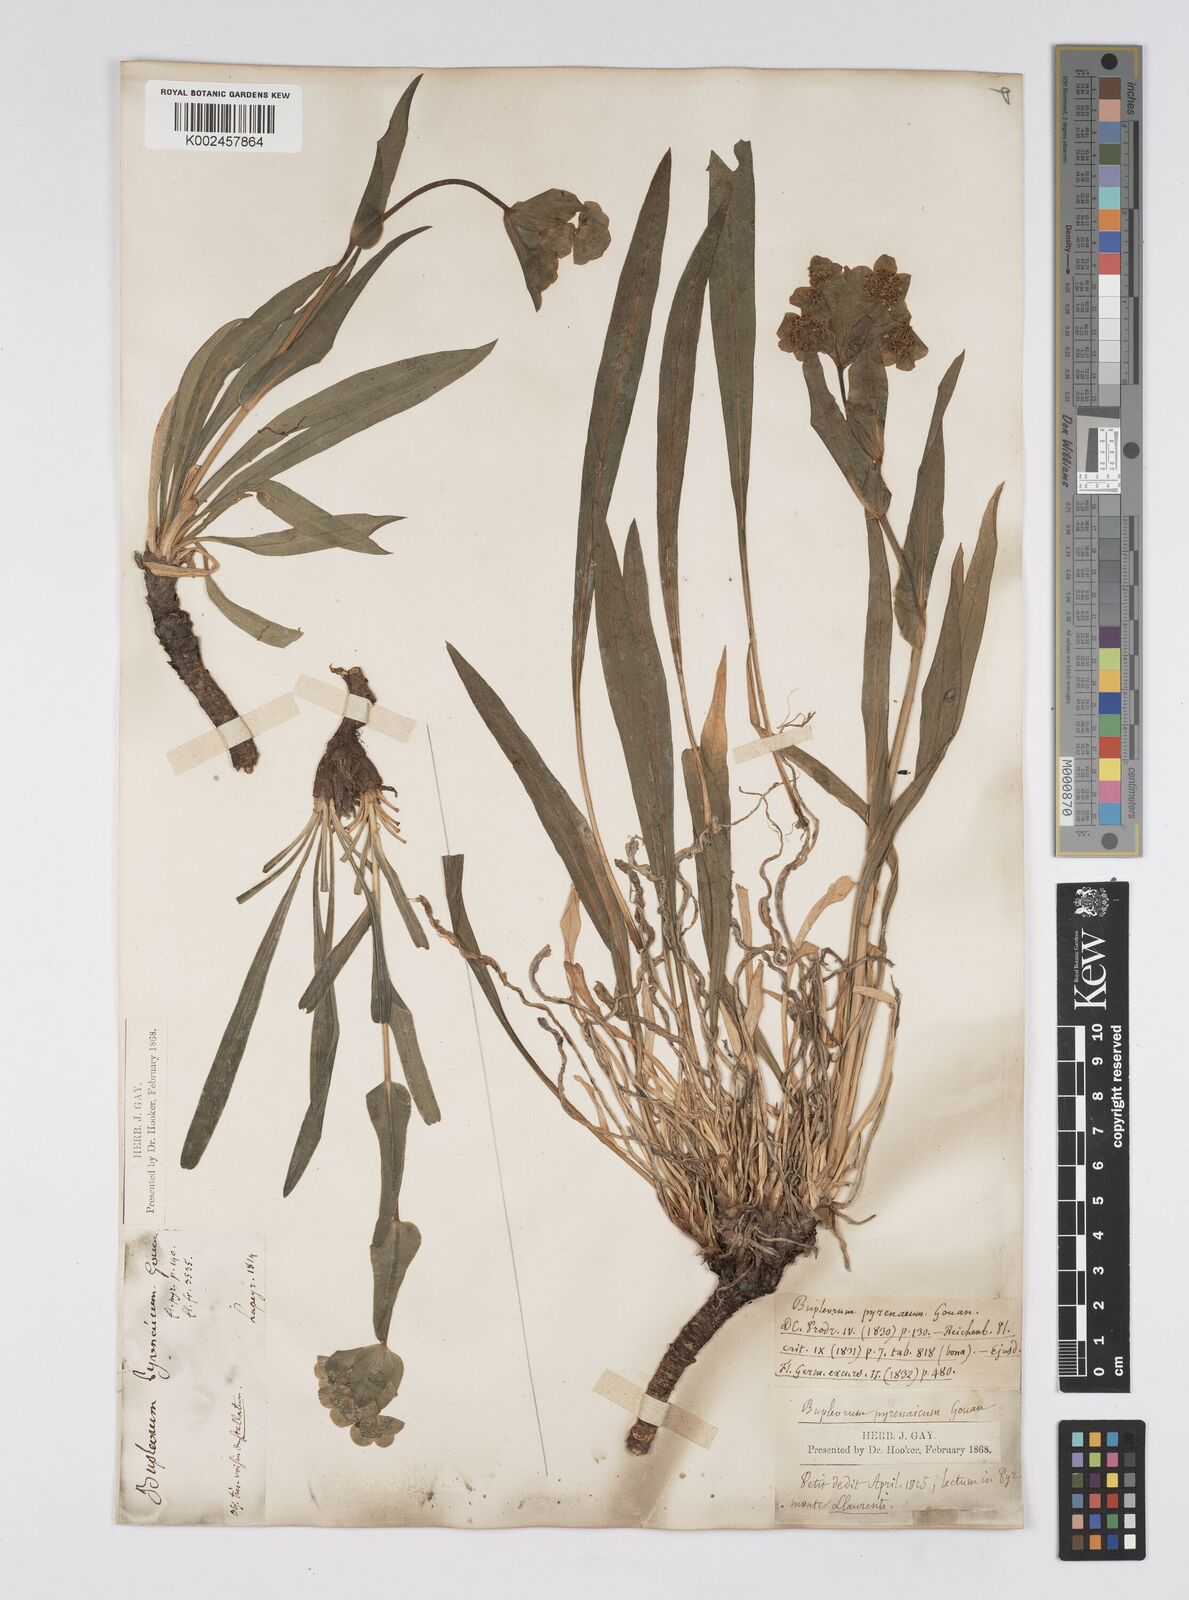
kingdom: Plantae
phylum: Tracheophyta
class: Magnoliopsida
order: Apiales
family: Apiaceae
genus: Bupleurum
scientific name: Bupleurum angulosum
